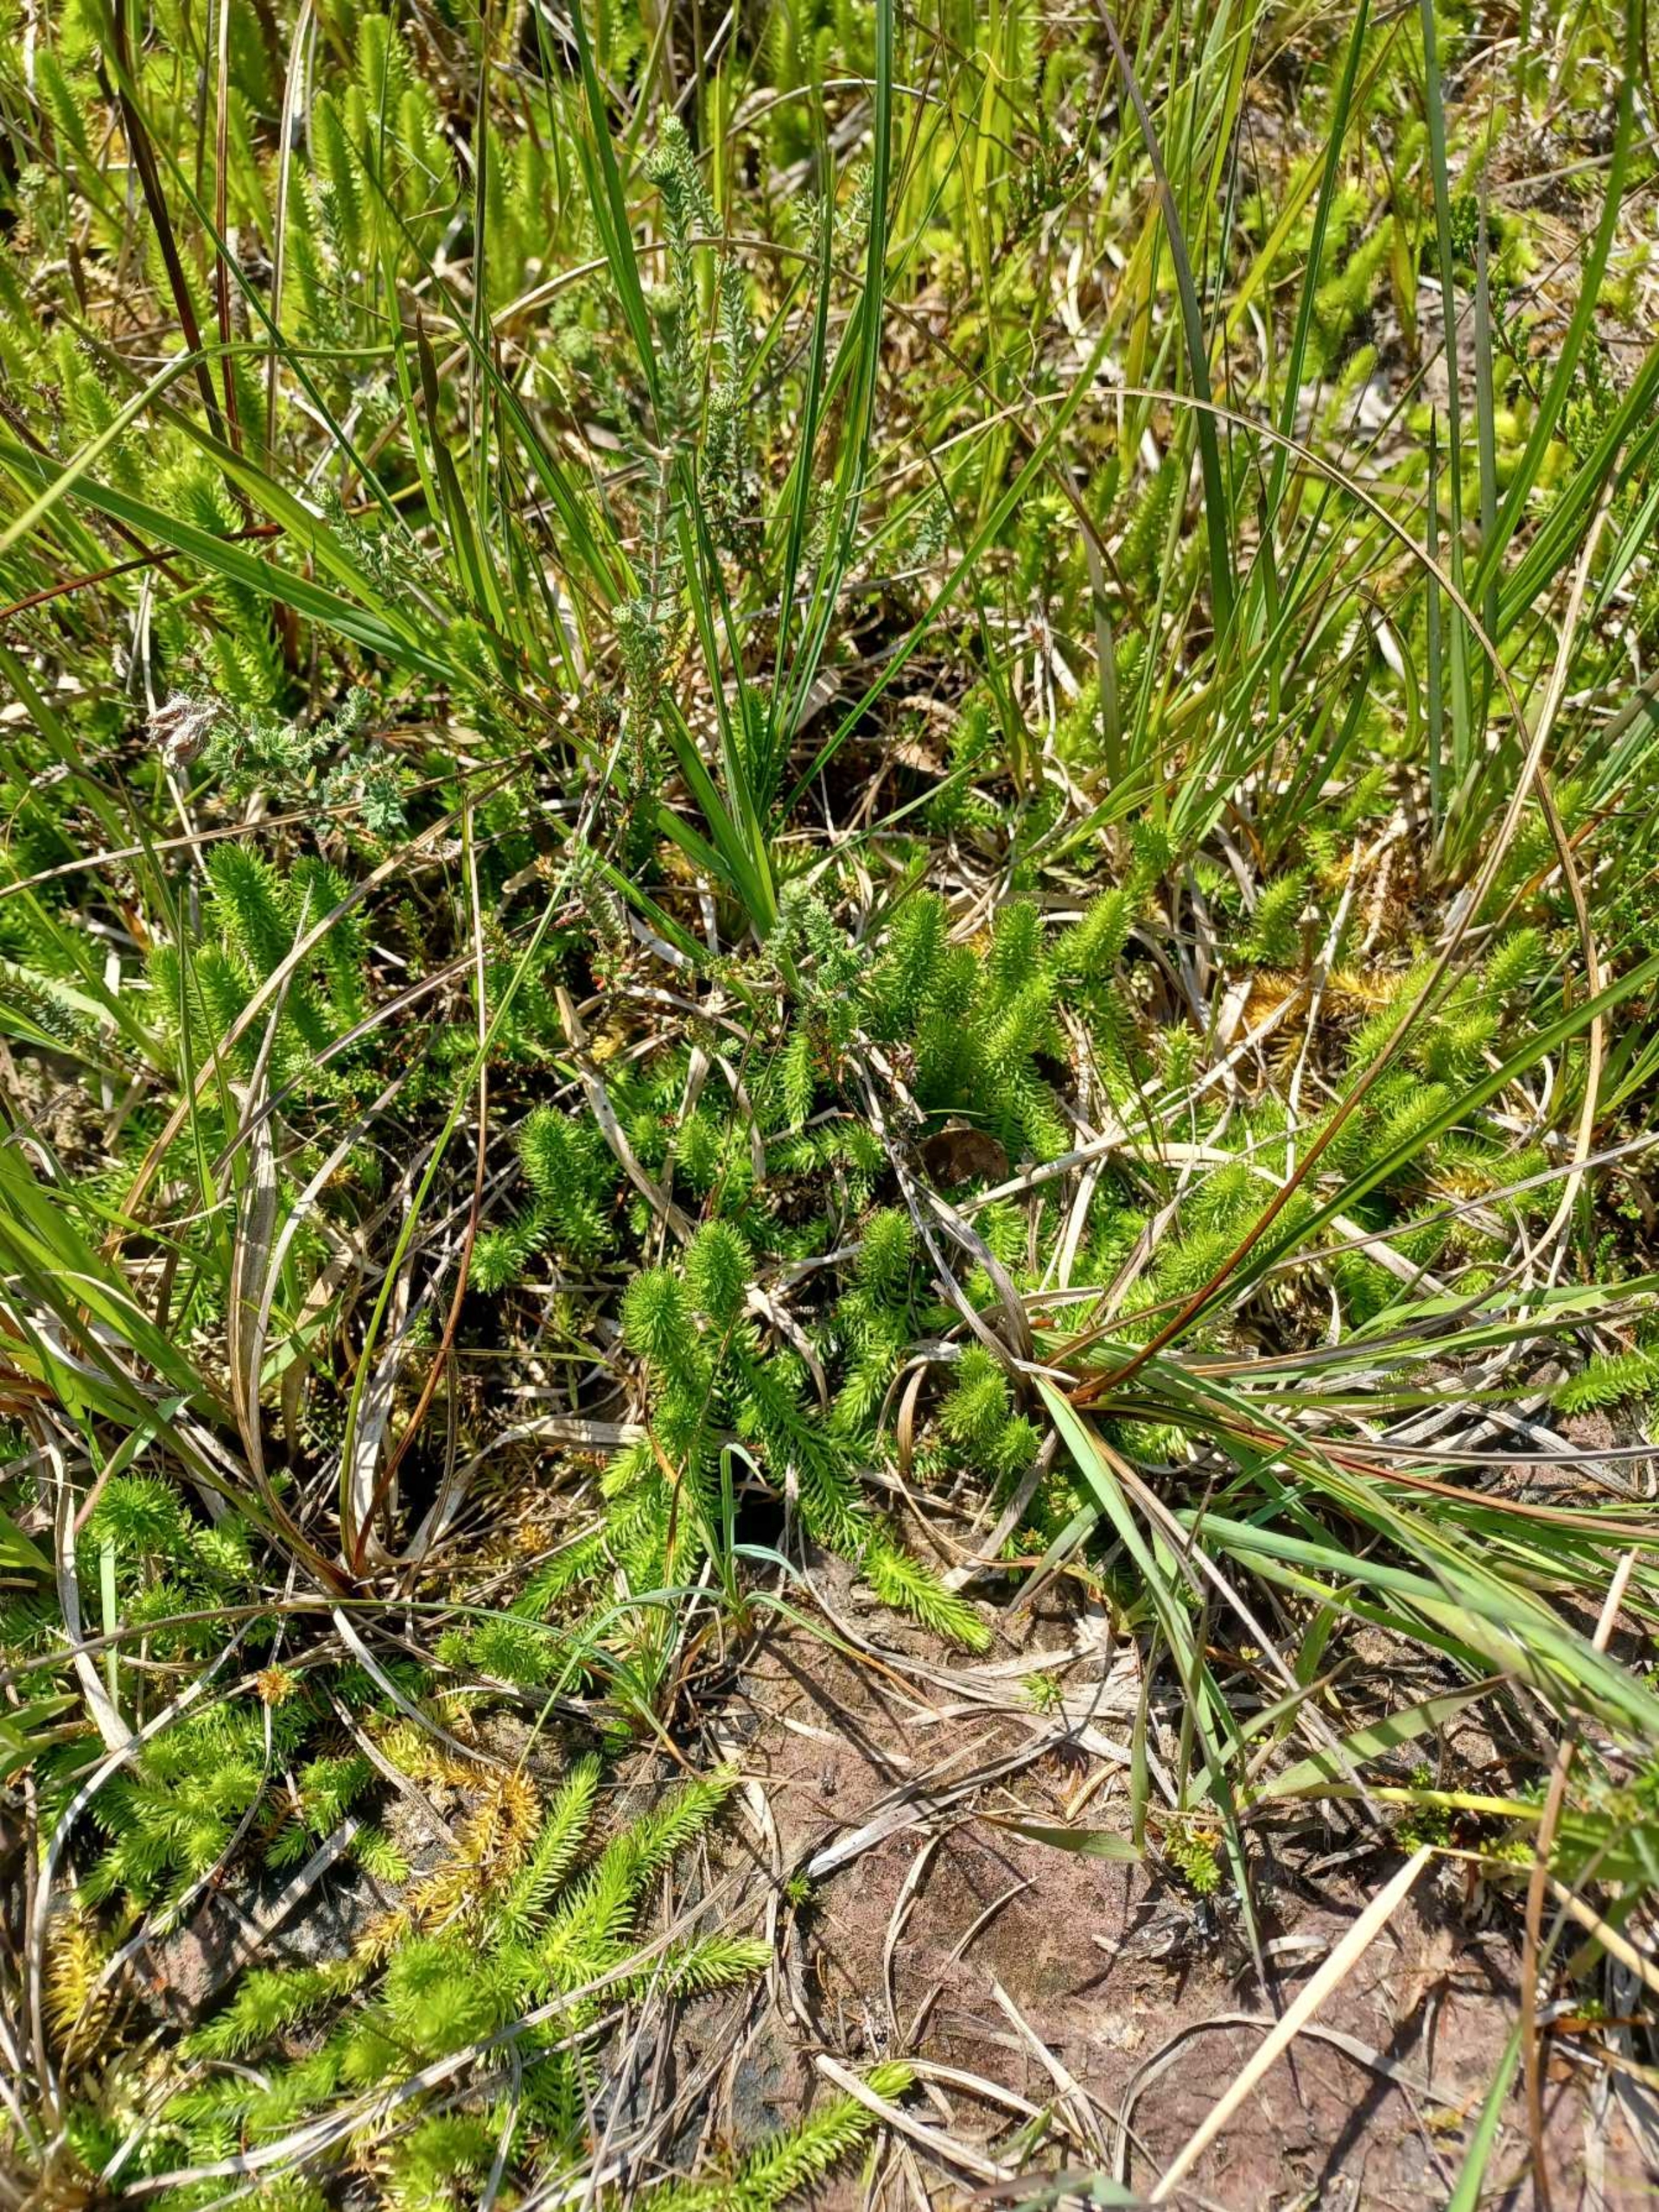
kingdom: Plantae
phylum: Tracheophyta
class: Lycopodiopsida
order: Lycopodiales
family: Lycopodiaceae
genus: Lycopodiella
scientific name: Lycopodiella inundata
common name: Liden ulvefod
